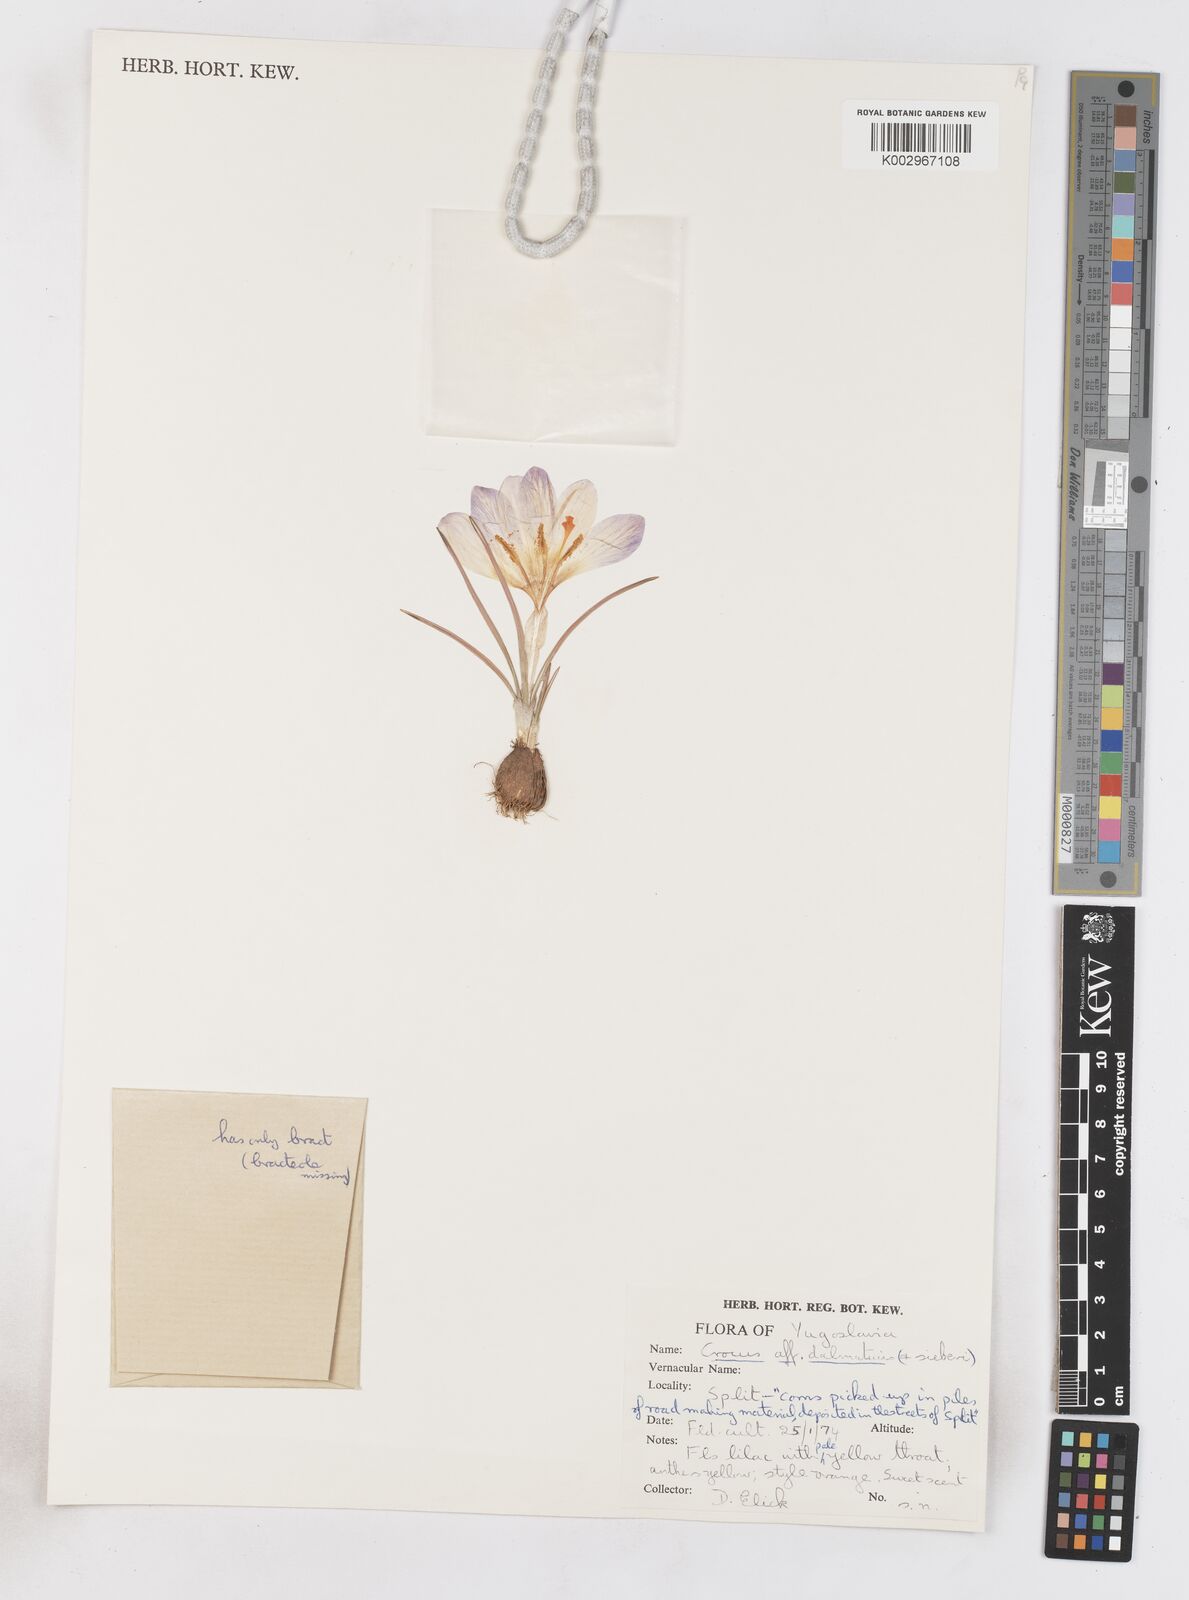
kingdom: Plantae
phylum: Tracheophyta
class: Liliopsida
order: Asparagales
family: Iridaceae
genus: Crocus
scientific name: Crocus sieberi
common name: Sieber's crocus
